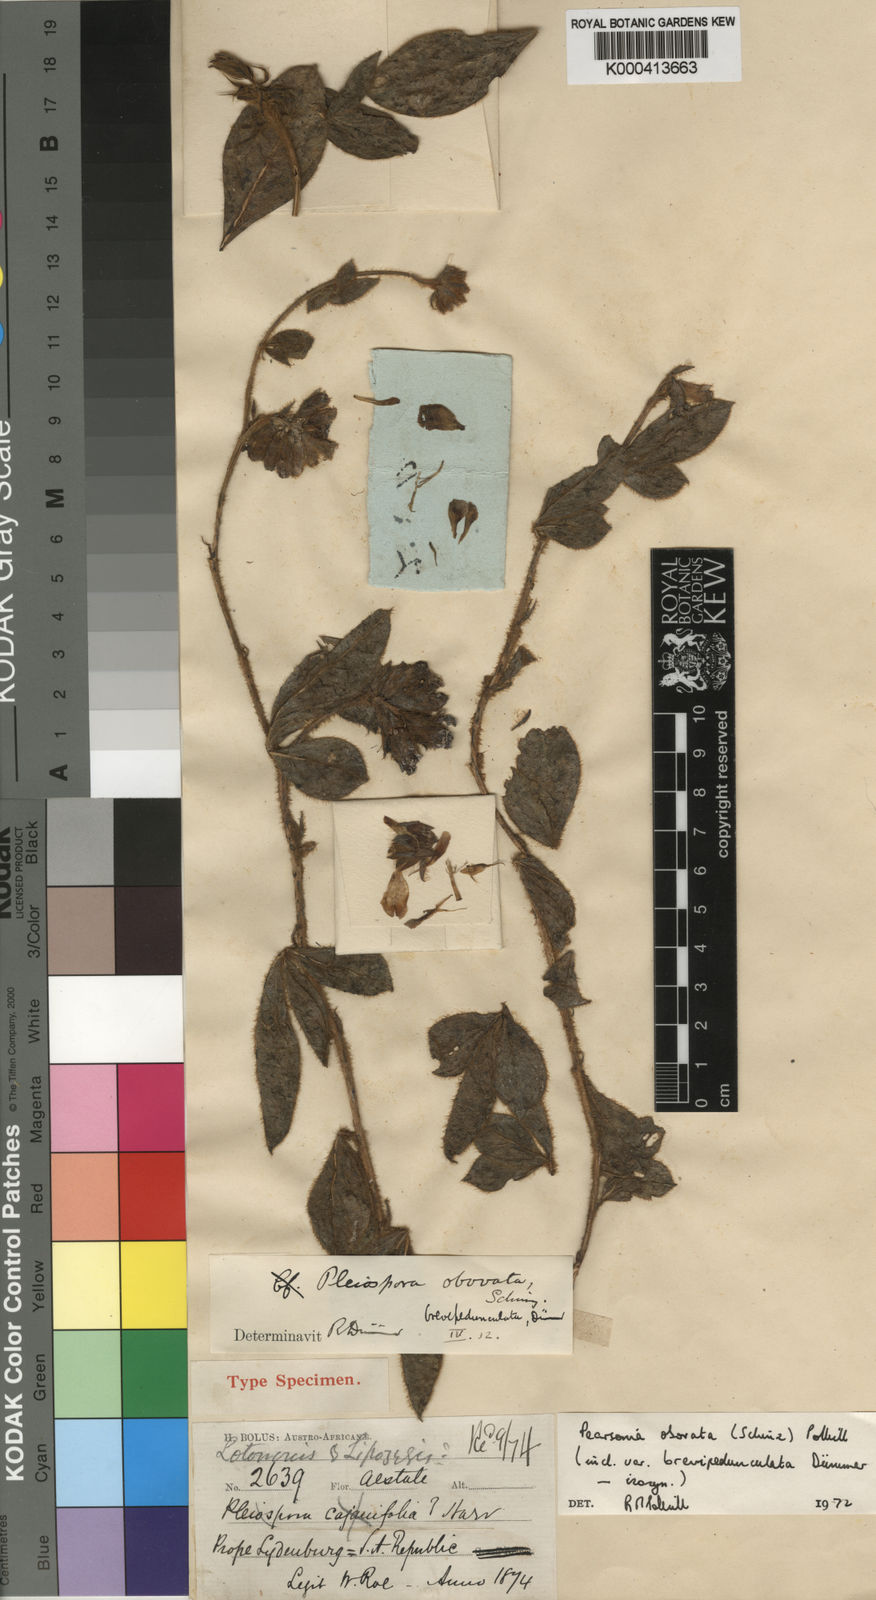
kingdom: Plantae
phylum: Tracheophyta
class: Magnoliopsida
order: Fabales
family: Fabaceae
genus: Pearsonia
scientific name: Pearsonia obovata
